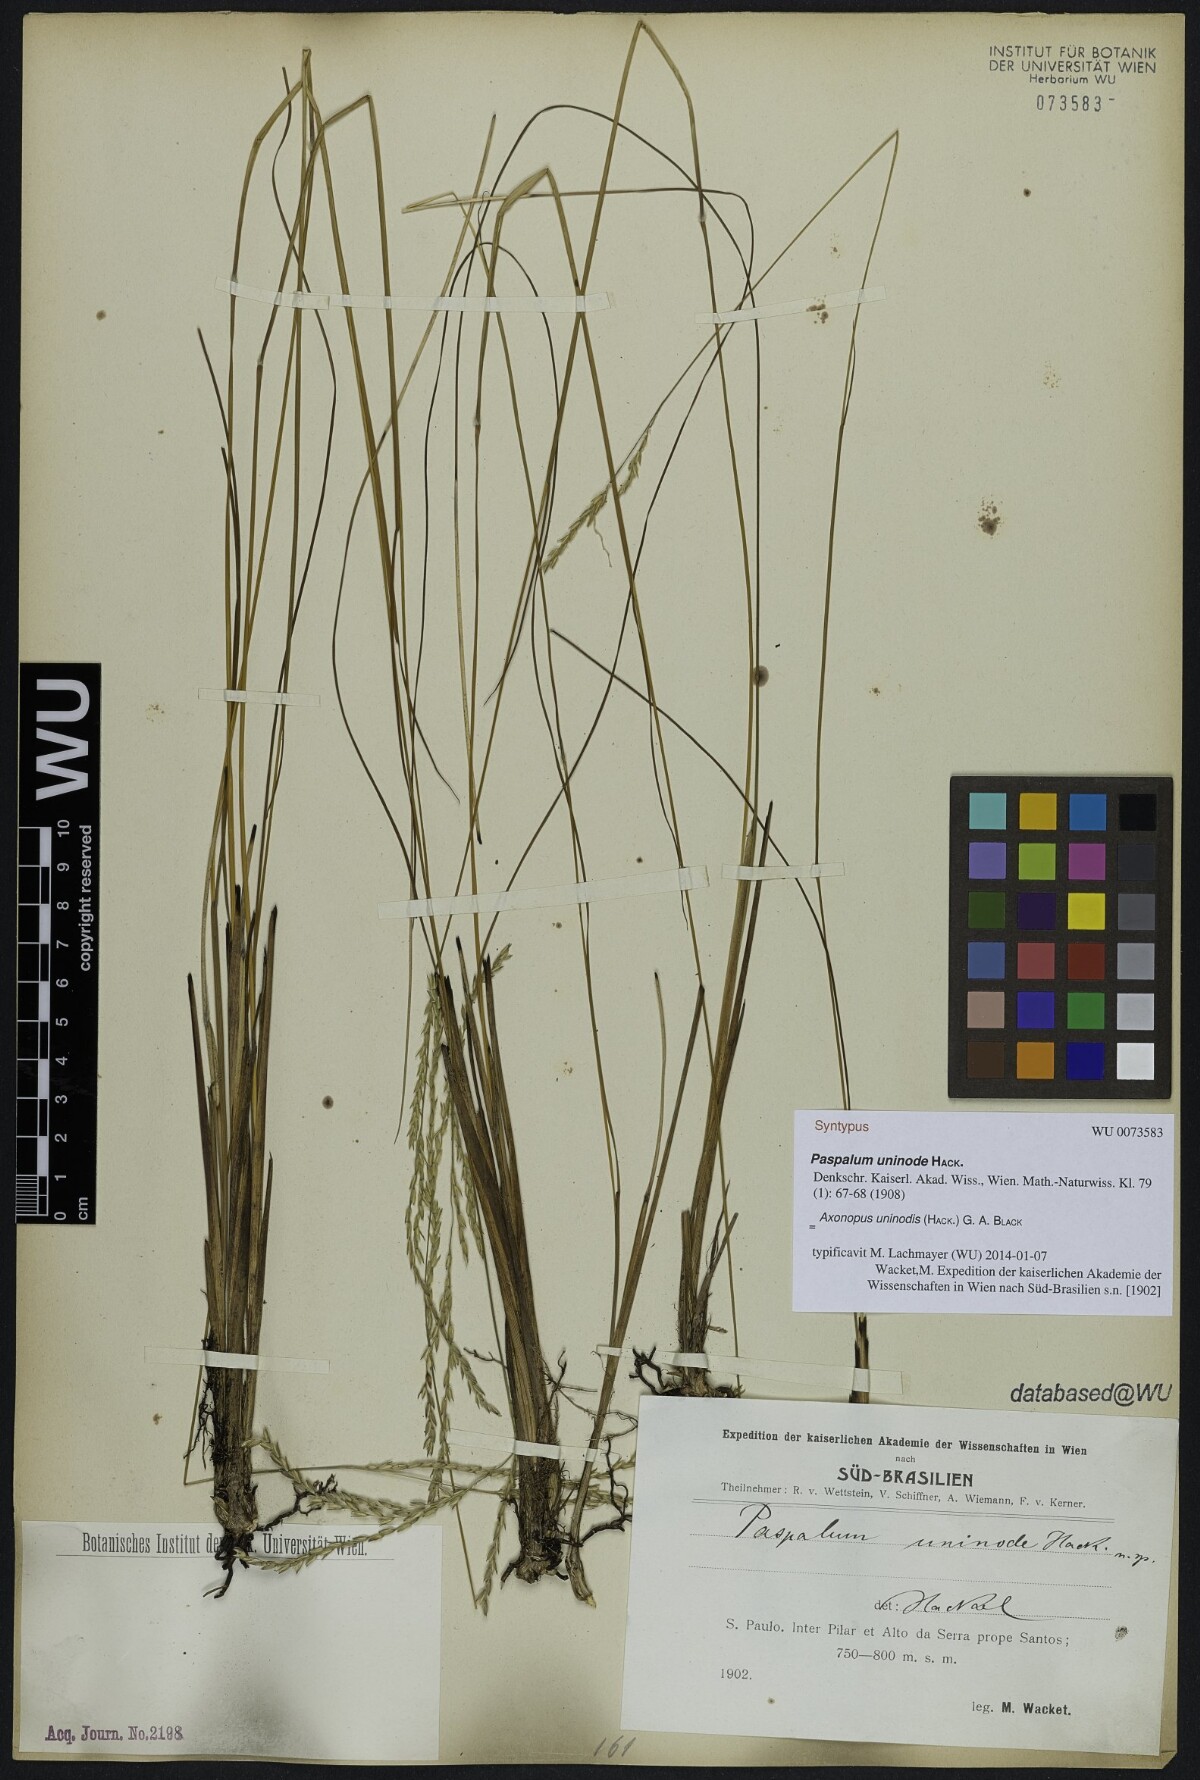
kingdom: Plantae
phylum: Tracheophyta
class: Liliopsida
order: Poales
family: Poaceae
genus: Axonopus
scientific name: Axonopus comans
